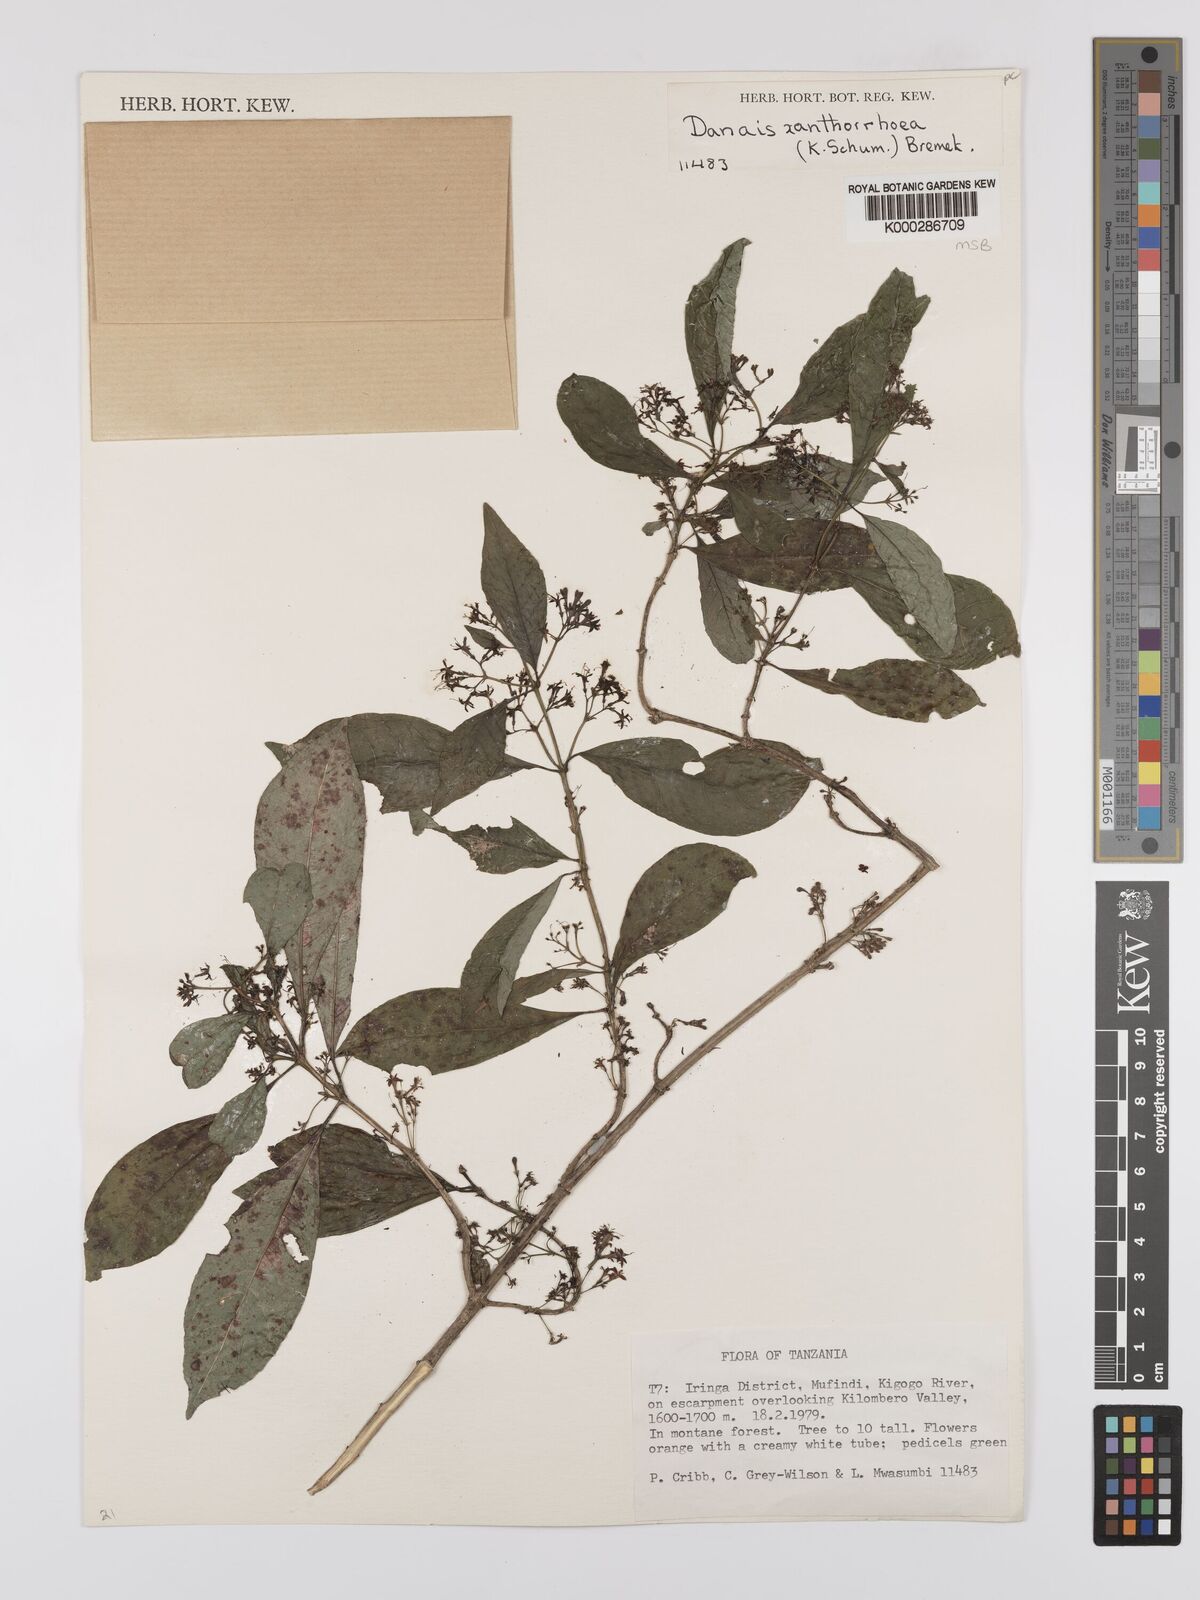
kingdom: Plantae
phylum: Tracheophyta
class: Magnoliopsida
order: Gentianales
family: Rubiaceae
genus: Danais
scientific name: Danais xanthorrhoea
